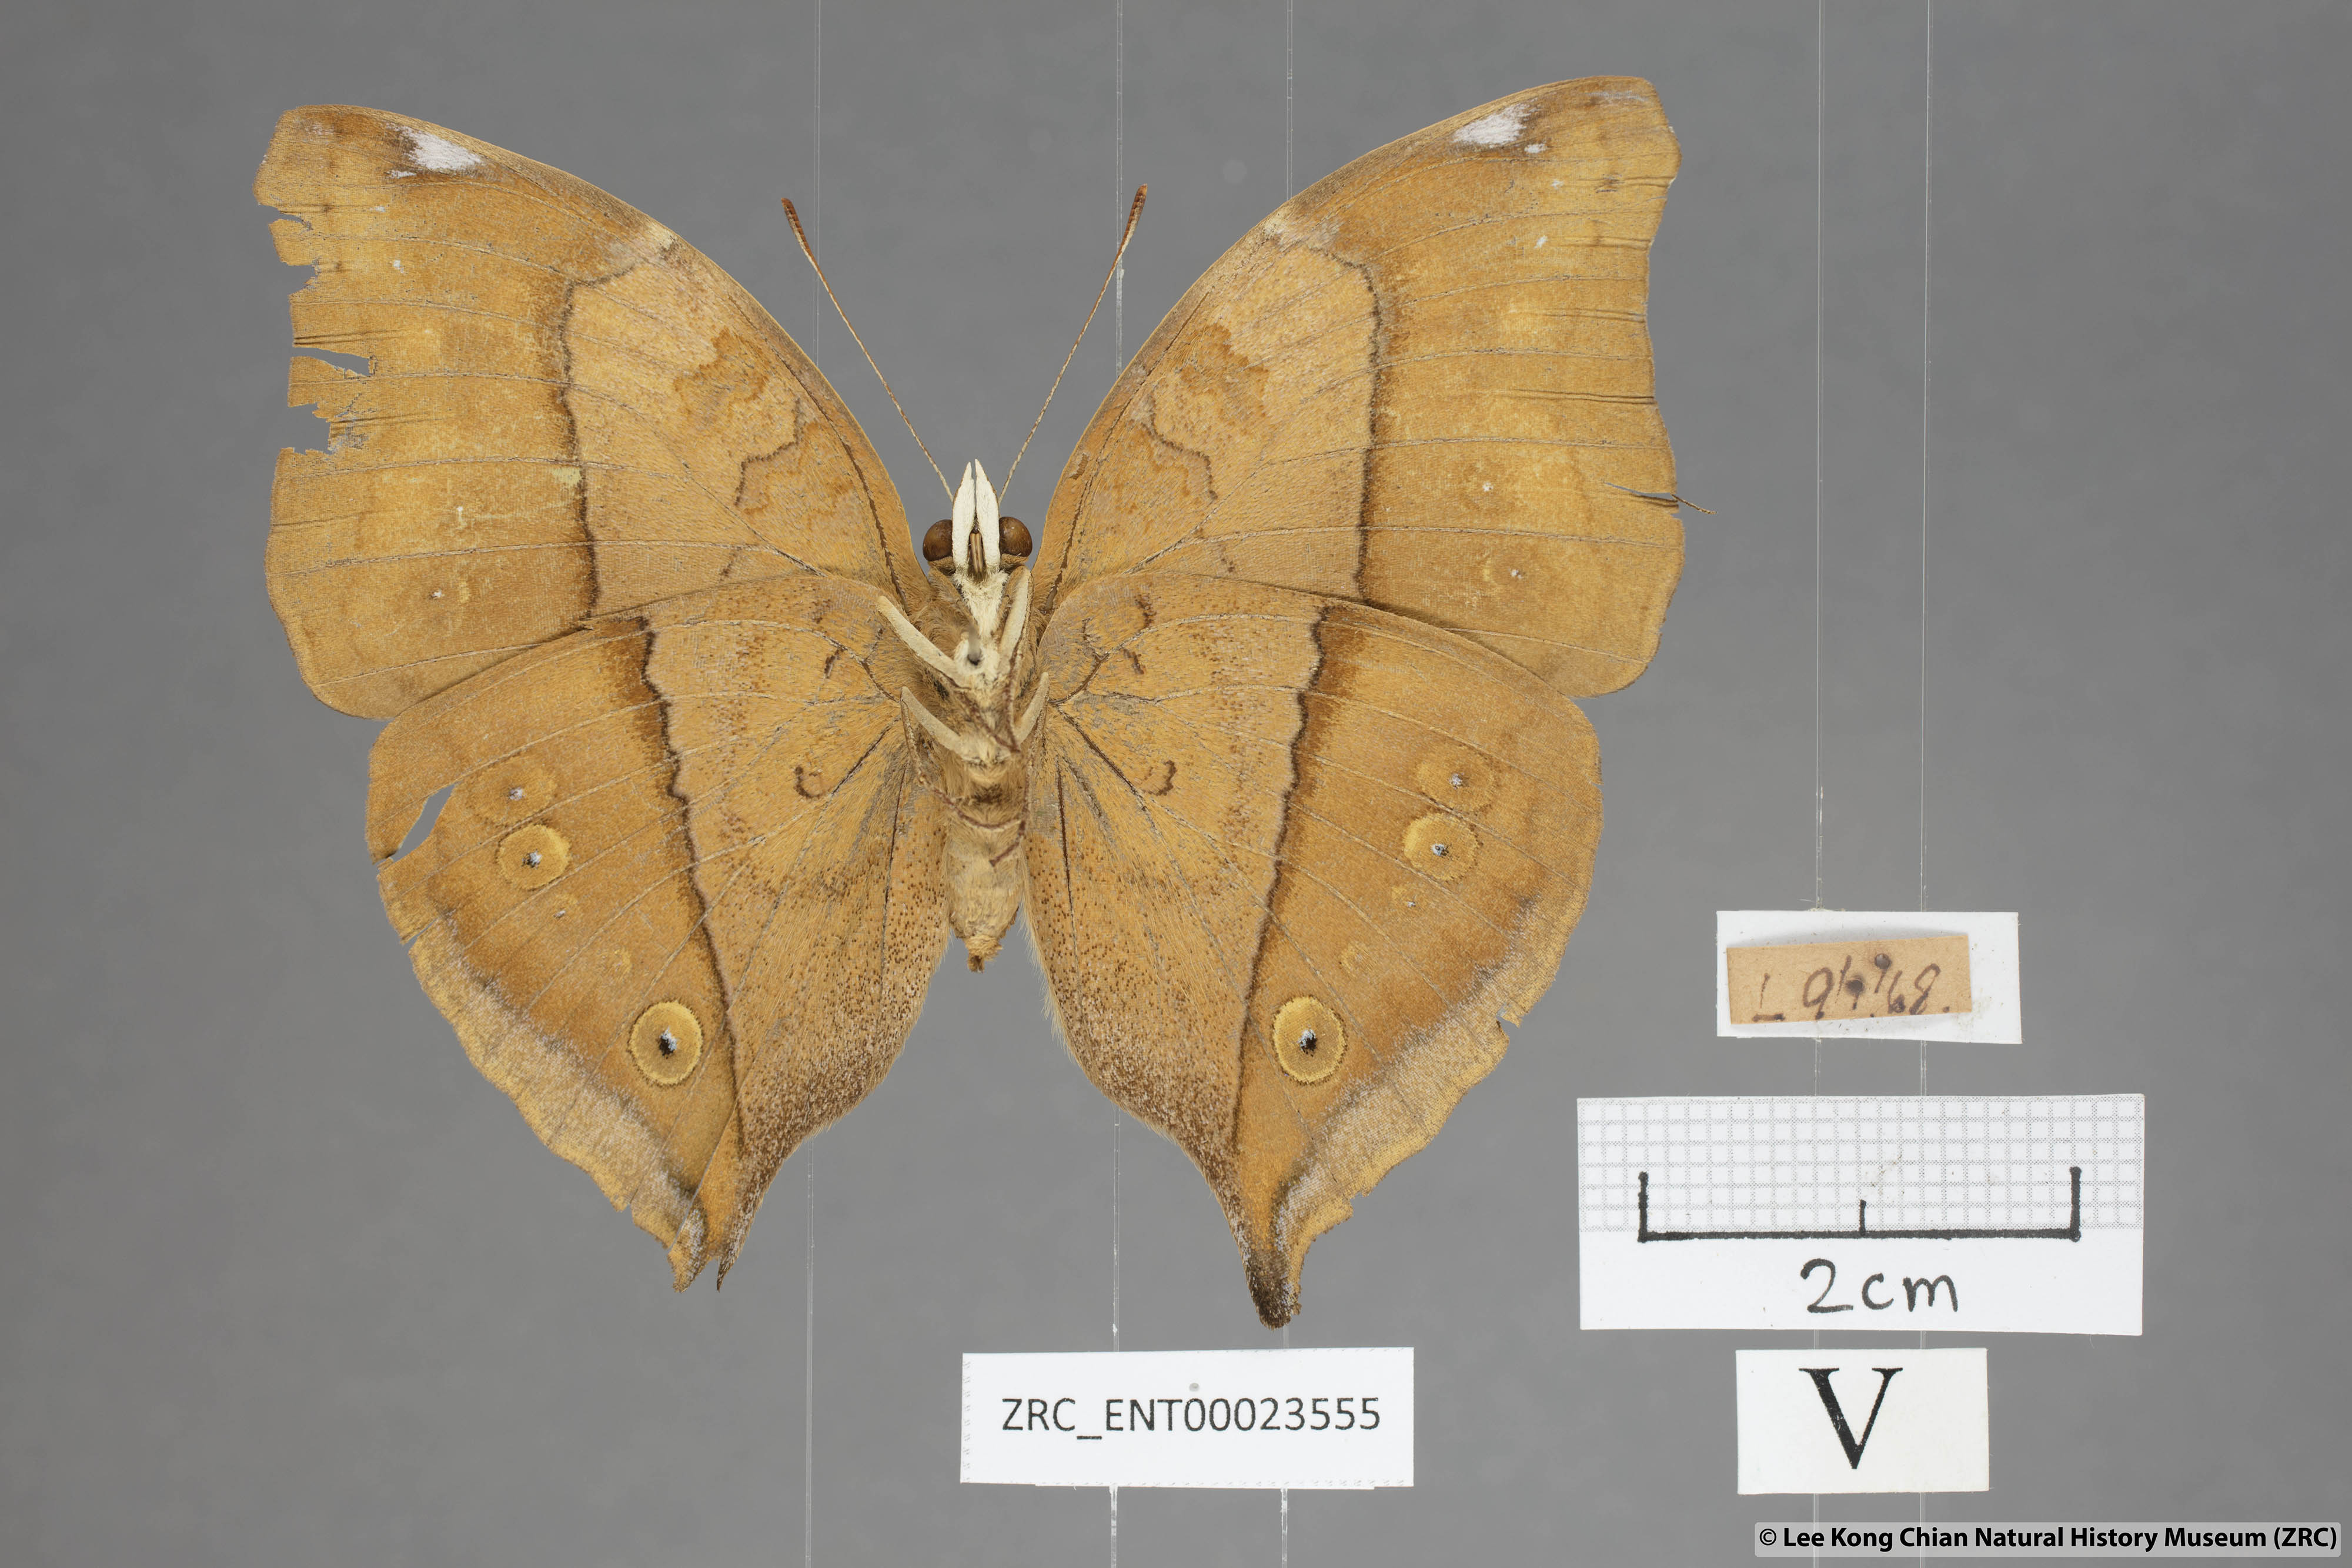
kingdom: Animalia
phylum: Arthropoda
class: Insecta
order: Lepidoptera
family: Nymphalidae
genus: Doleschallia
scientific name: Doleschallia bisaltide
